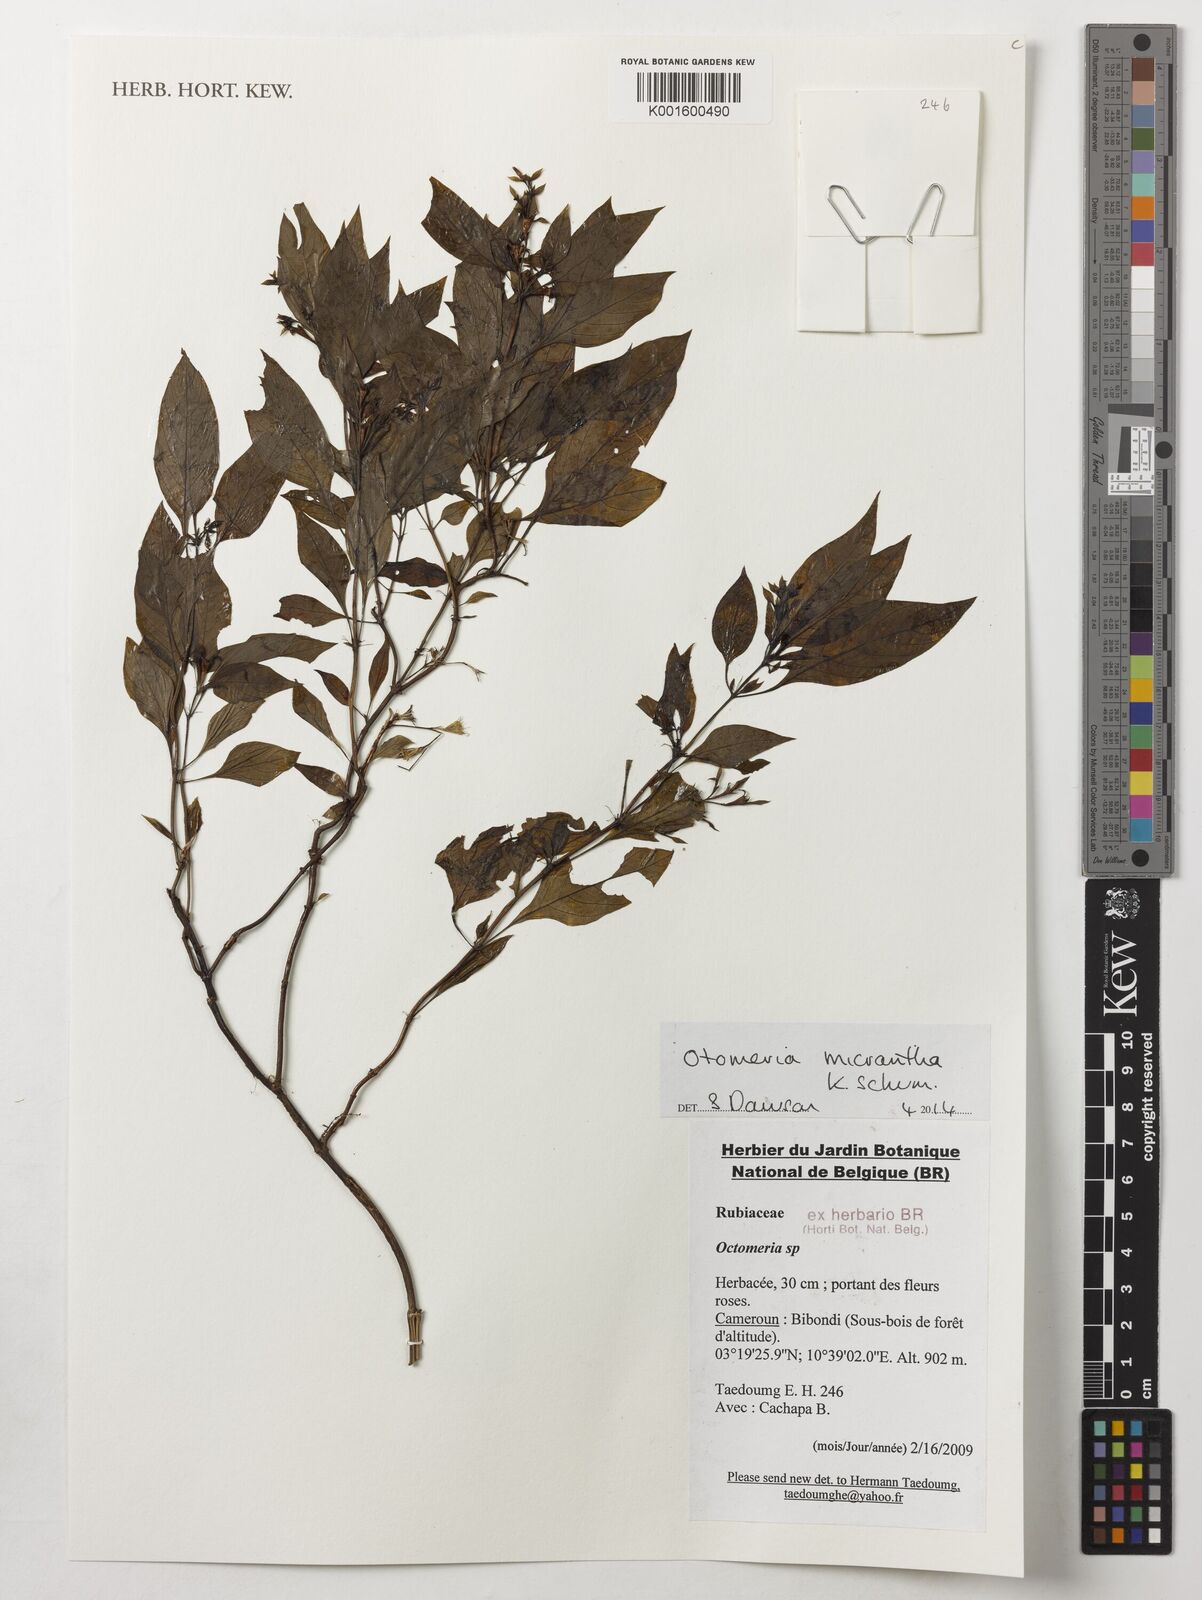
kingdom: Plantae
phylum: Tracheophyta
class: Liliopsida
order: Asparagales
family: Orchidaceae
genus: Octomeria
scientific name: Octomeria micrantha
